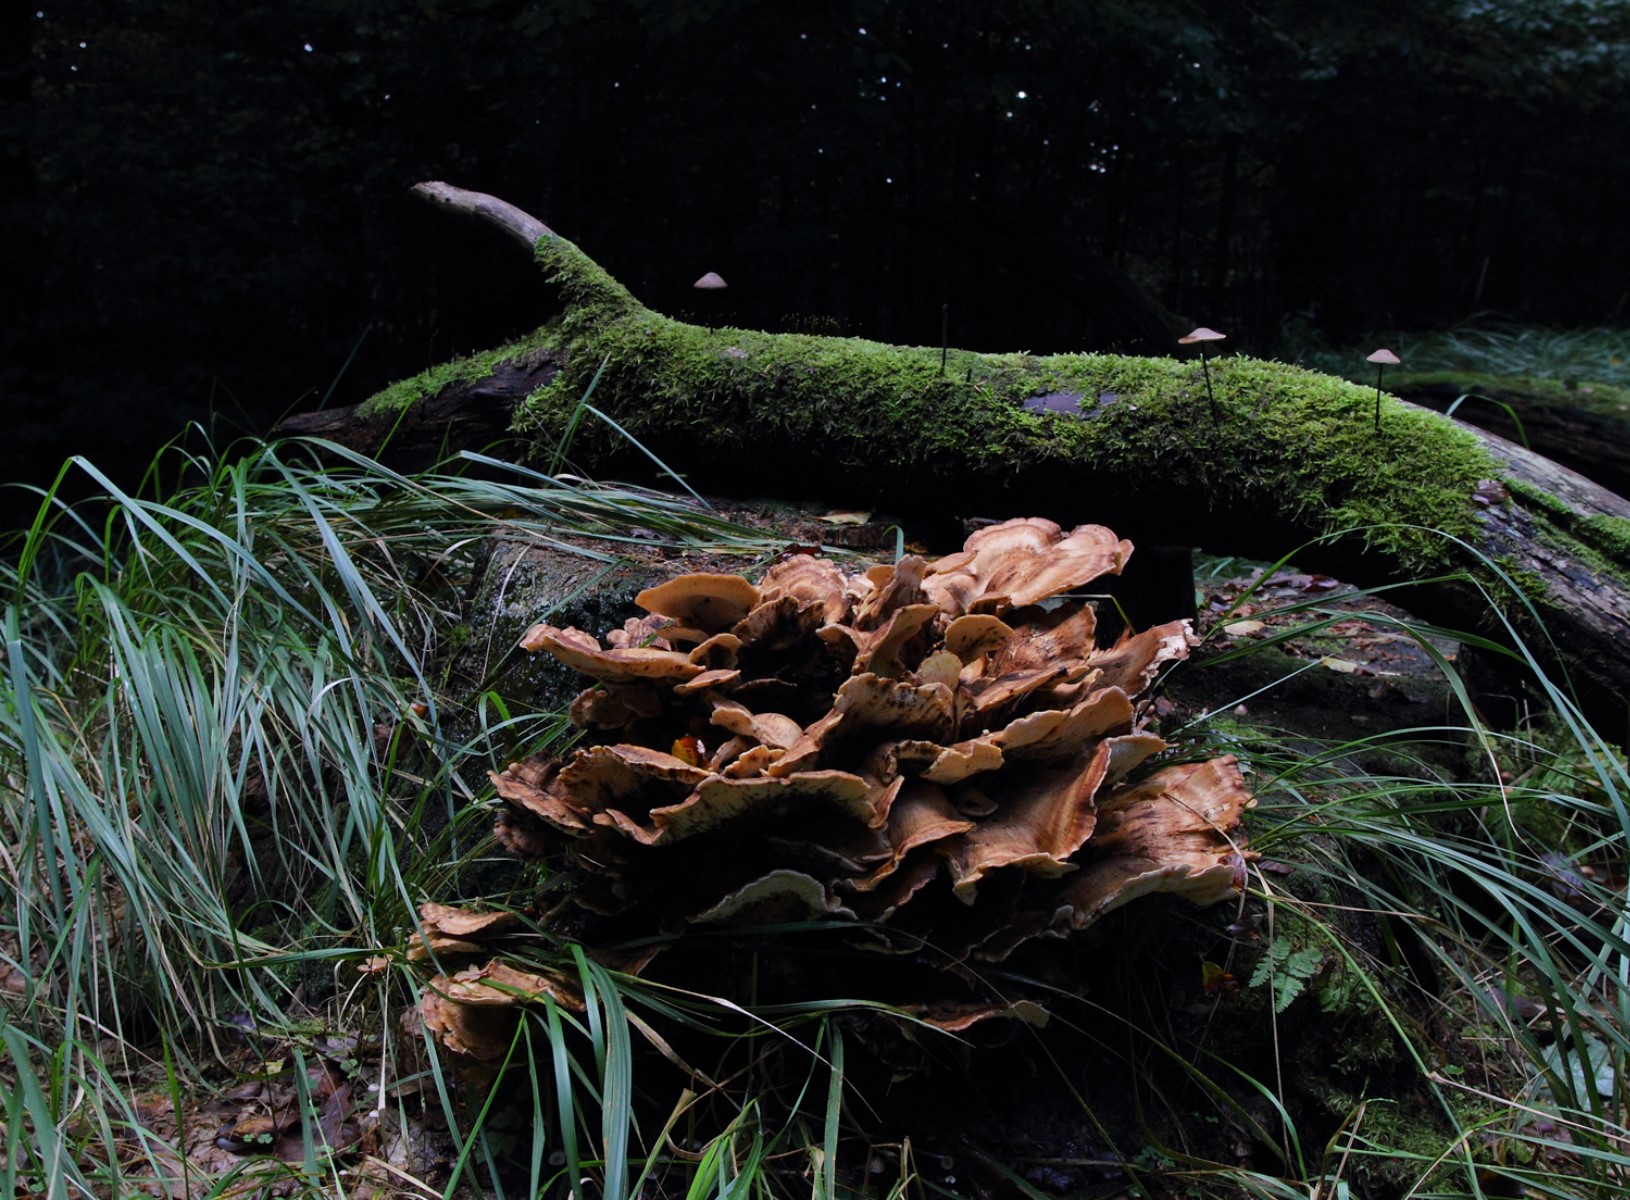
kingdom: Fungi
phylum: Basidiomycota
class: Agaricomycetes
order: Polyporales
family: Meripilaceae
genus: Meripilus
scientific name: Meripilus
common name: kæmpeporesvamp
